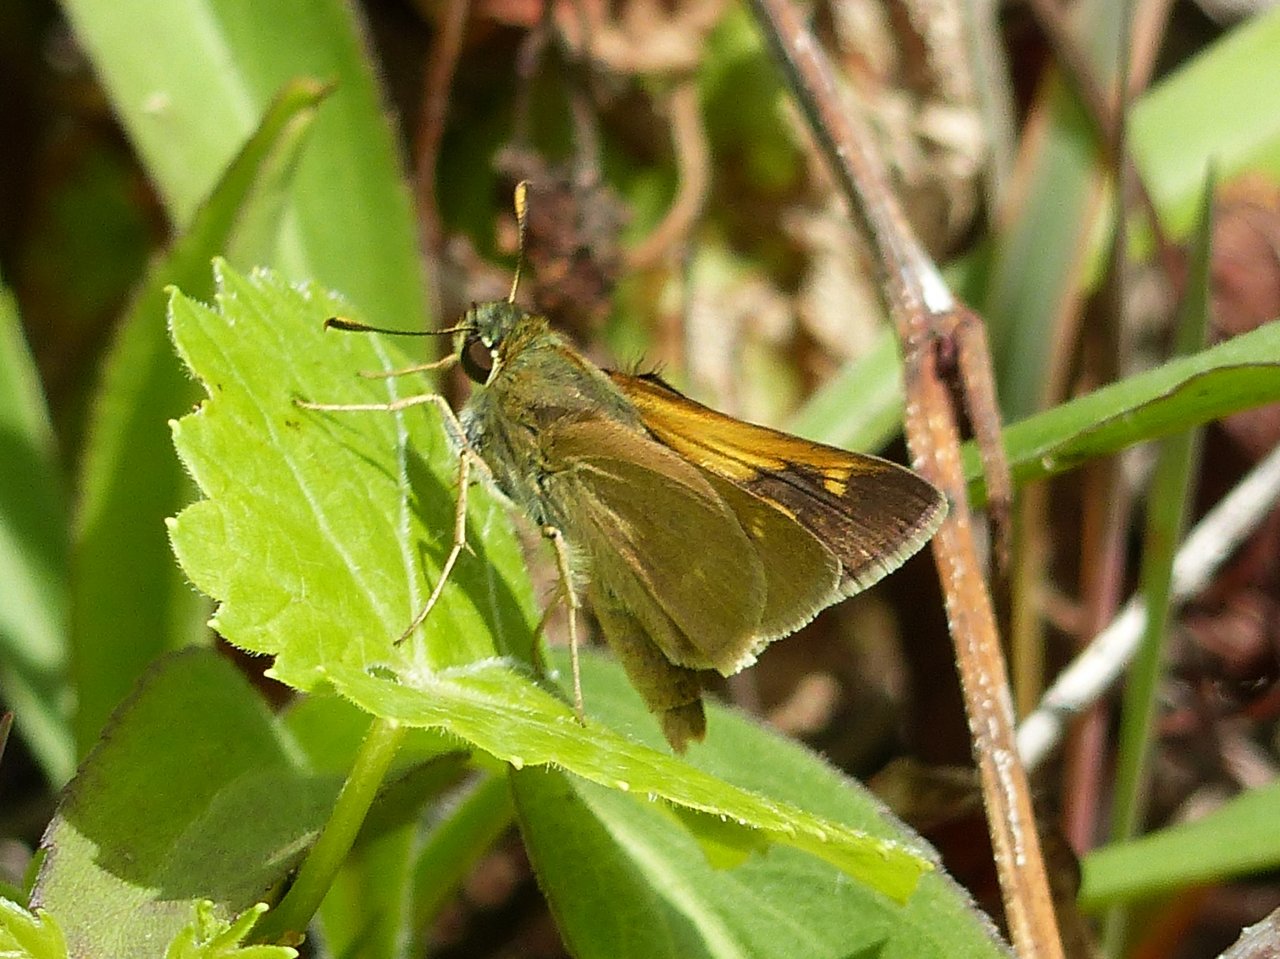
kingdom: Animalia
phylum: Arthropoda
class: Insecta
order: Lepidoptera
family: Hesperiidae
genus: Polites
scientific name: Polites
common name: Crossline Skipper
